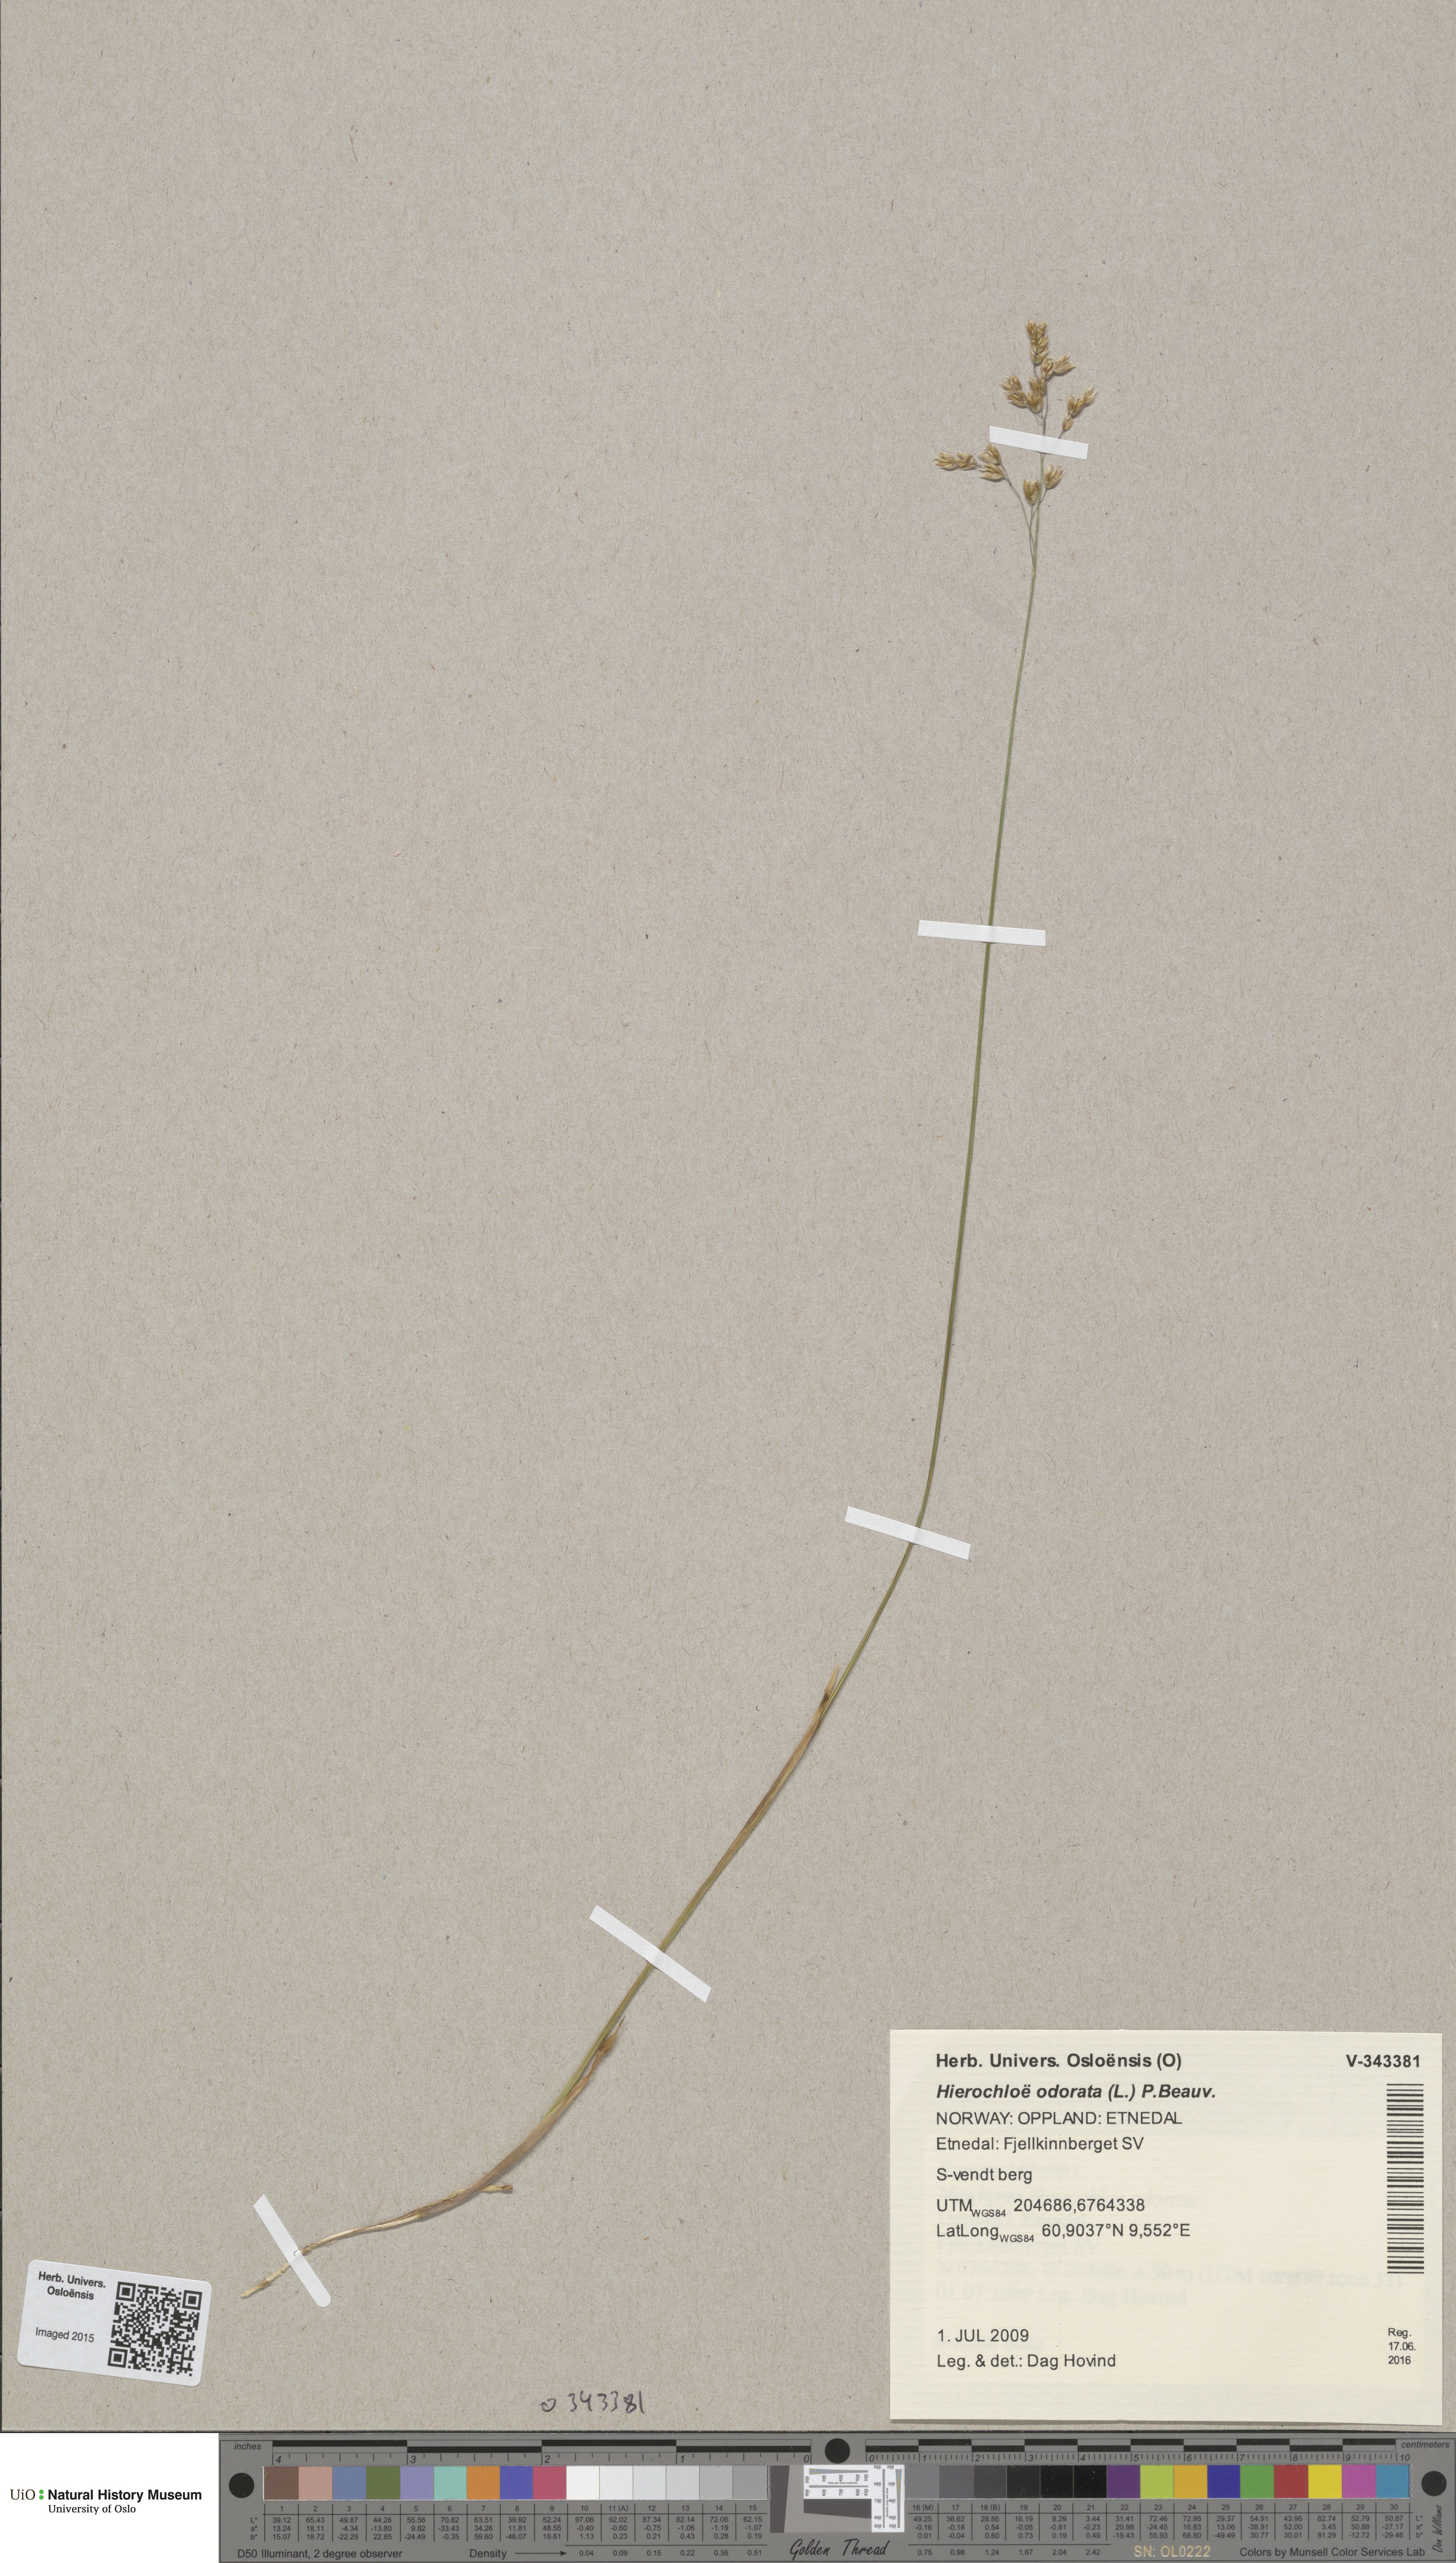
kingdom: Plantae
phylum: Tracheophyta
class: Liliopsida
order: Poales
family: Poaceae
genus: Anthoxanthum
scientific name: Anthoxanthum nitens
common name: Holy grass
